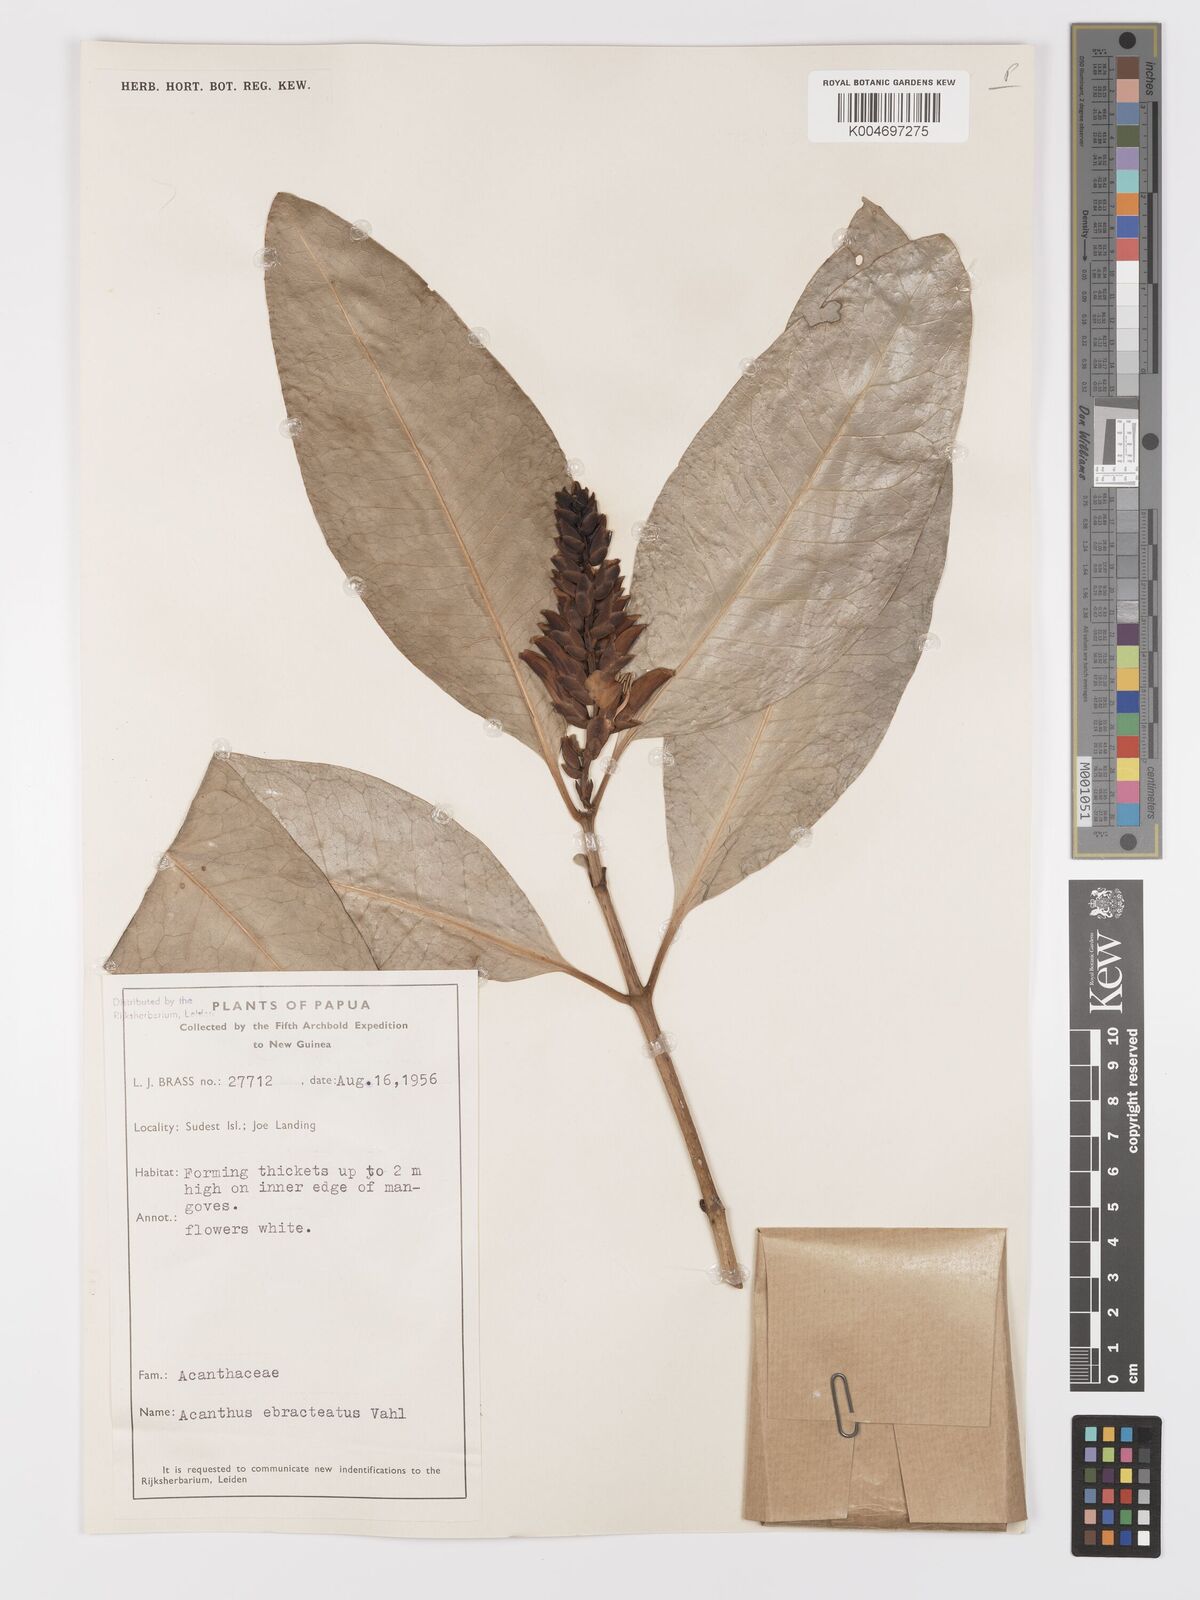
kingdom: Plantae
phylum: Tracheophyta
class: Magnoliopsida
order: Lamiales
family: Acanthaceae
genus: Acanthus
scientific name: Acanthus ebracteatus
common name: Acanthus
